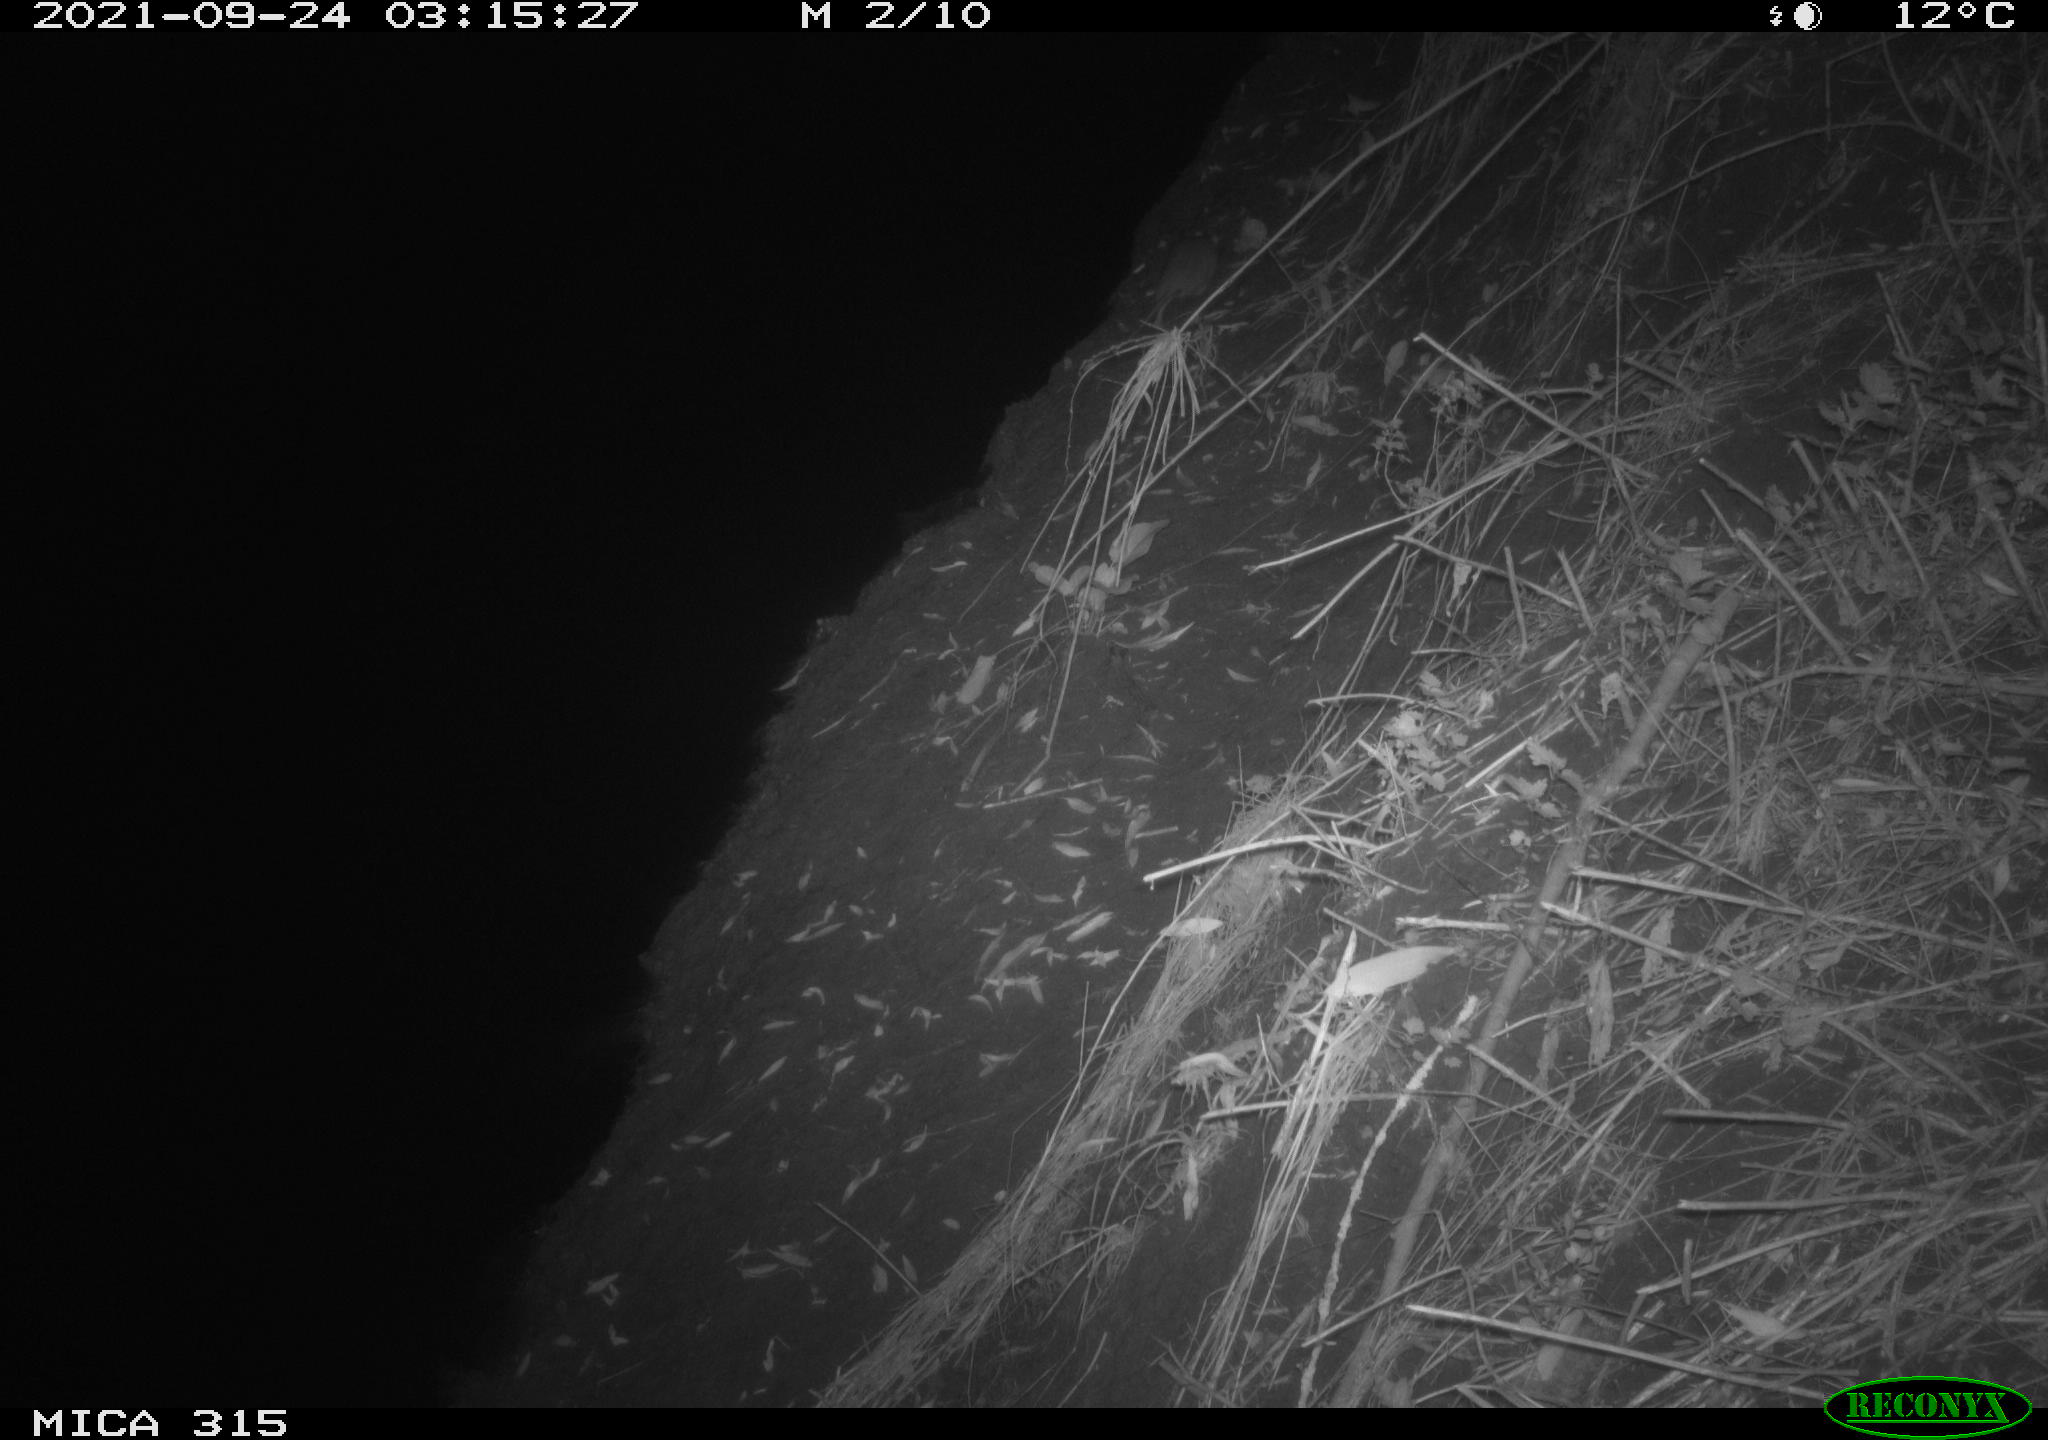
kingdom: Animalia
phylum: Chordata
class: Mammalia
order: Rodentia
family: Muridae
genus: Rattus
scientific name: Rattus norvegicus
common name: Brown rat
